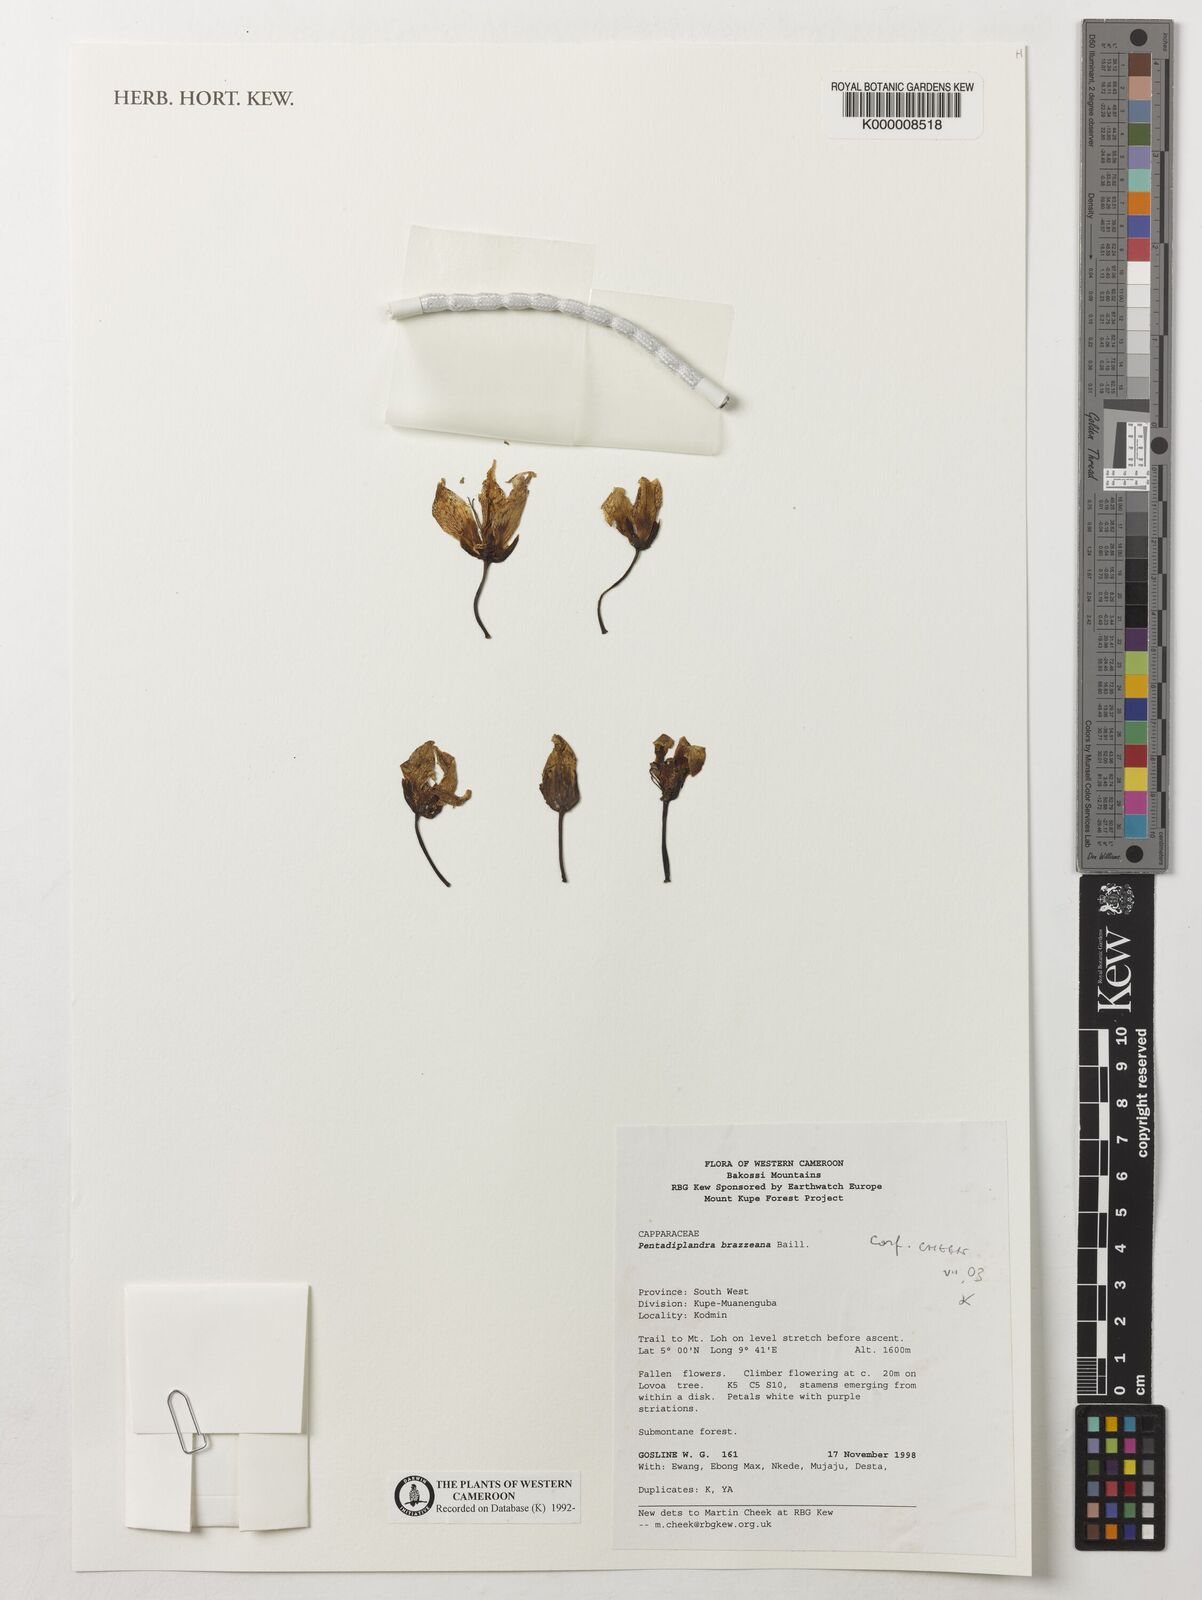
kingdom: Plantae
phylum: Tracheophyta
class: Magnoliopsida
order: Brassicales
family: Pentadiplandraceae
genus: Pentadiplandra
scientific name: Pentadiplandra brazzeana
